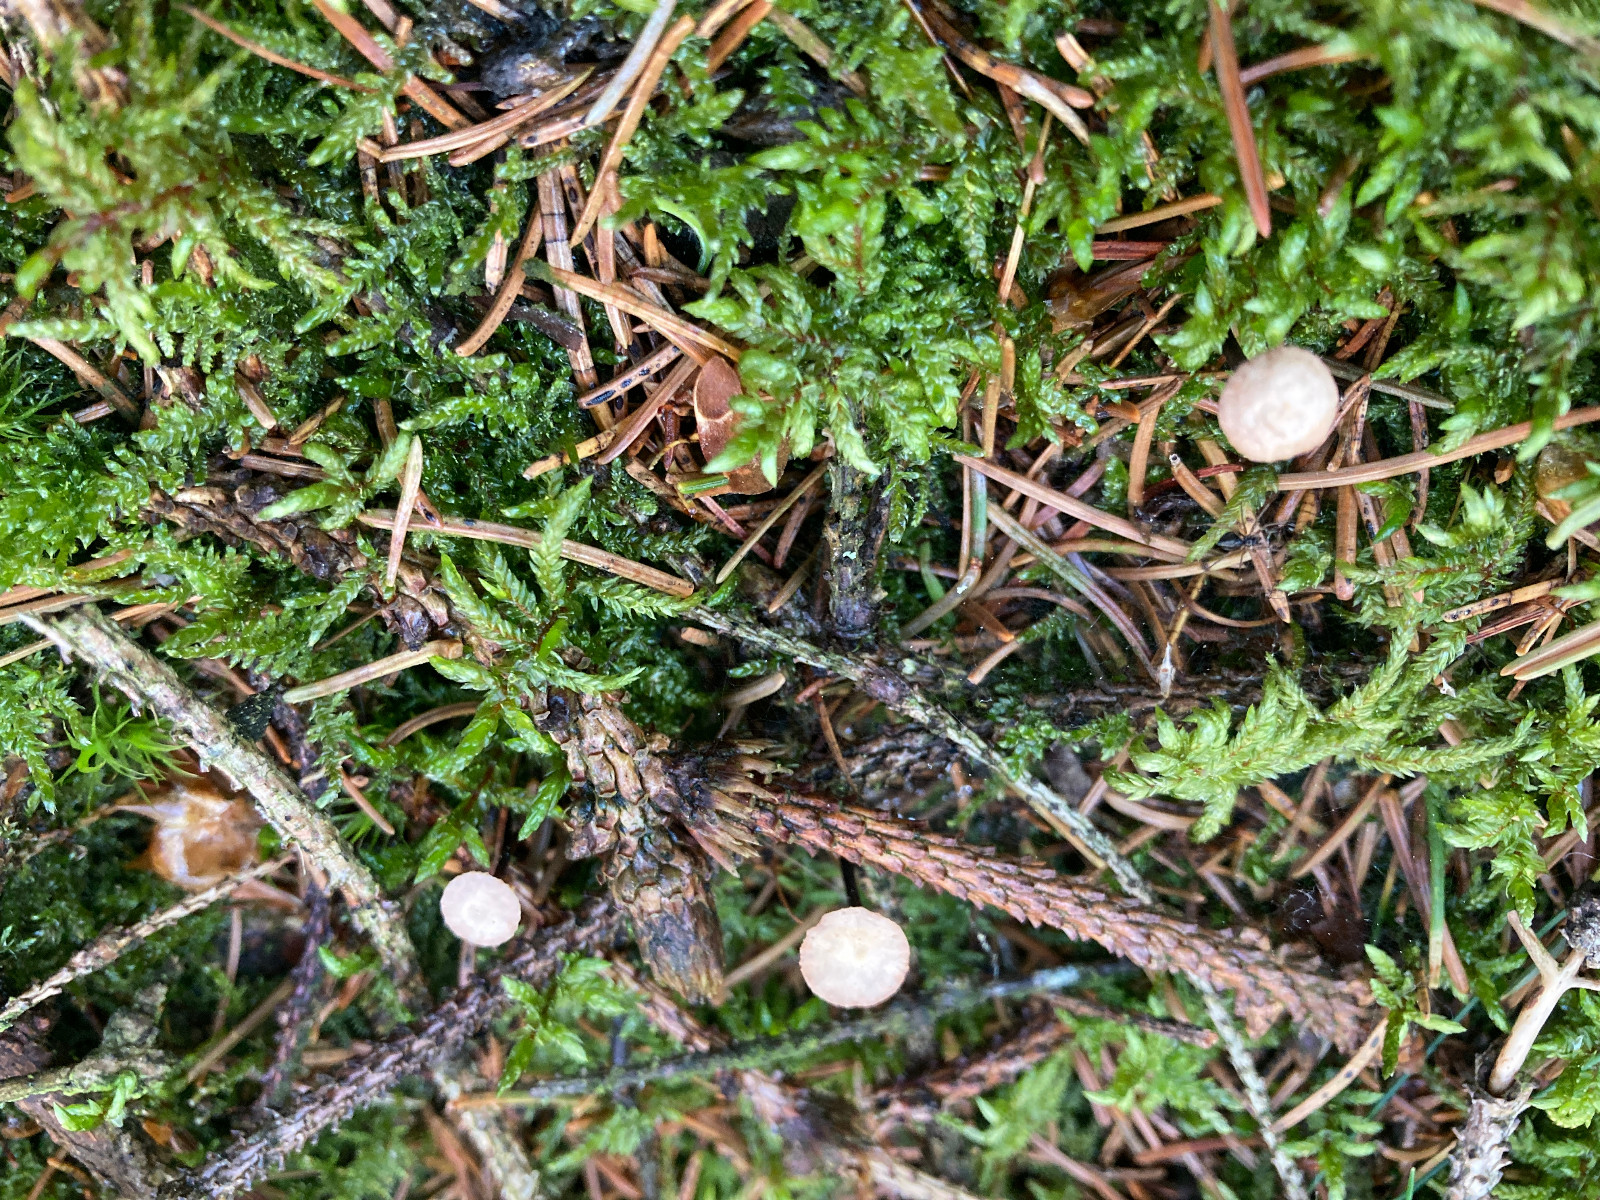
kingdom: Fungi
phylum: Basidiomycota
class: Agaricomycetes
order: Agaricales
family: Omphalotaceae
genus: Paragymnopus
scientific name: Paragymnopus perforans
